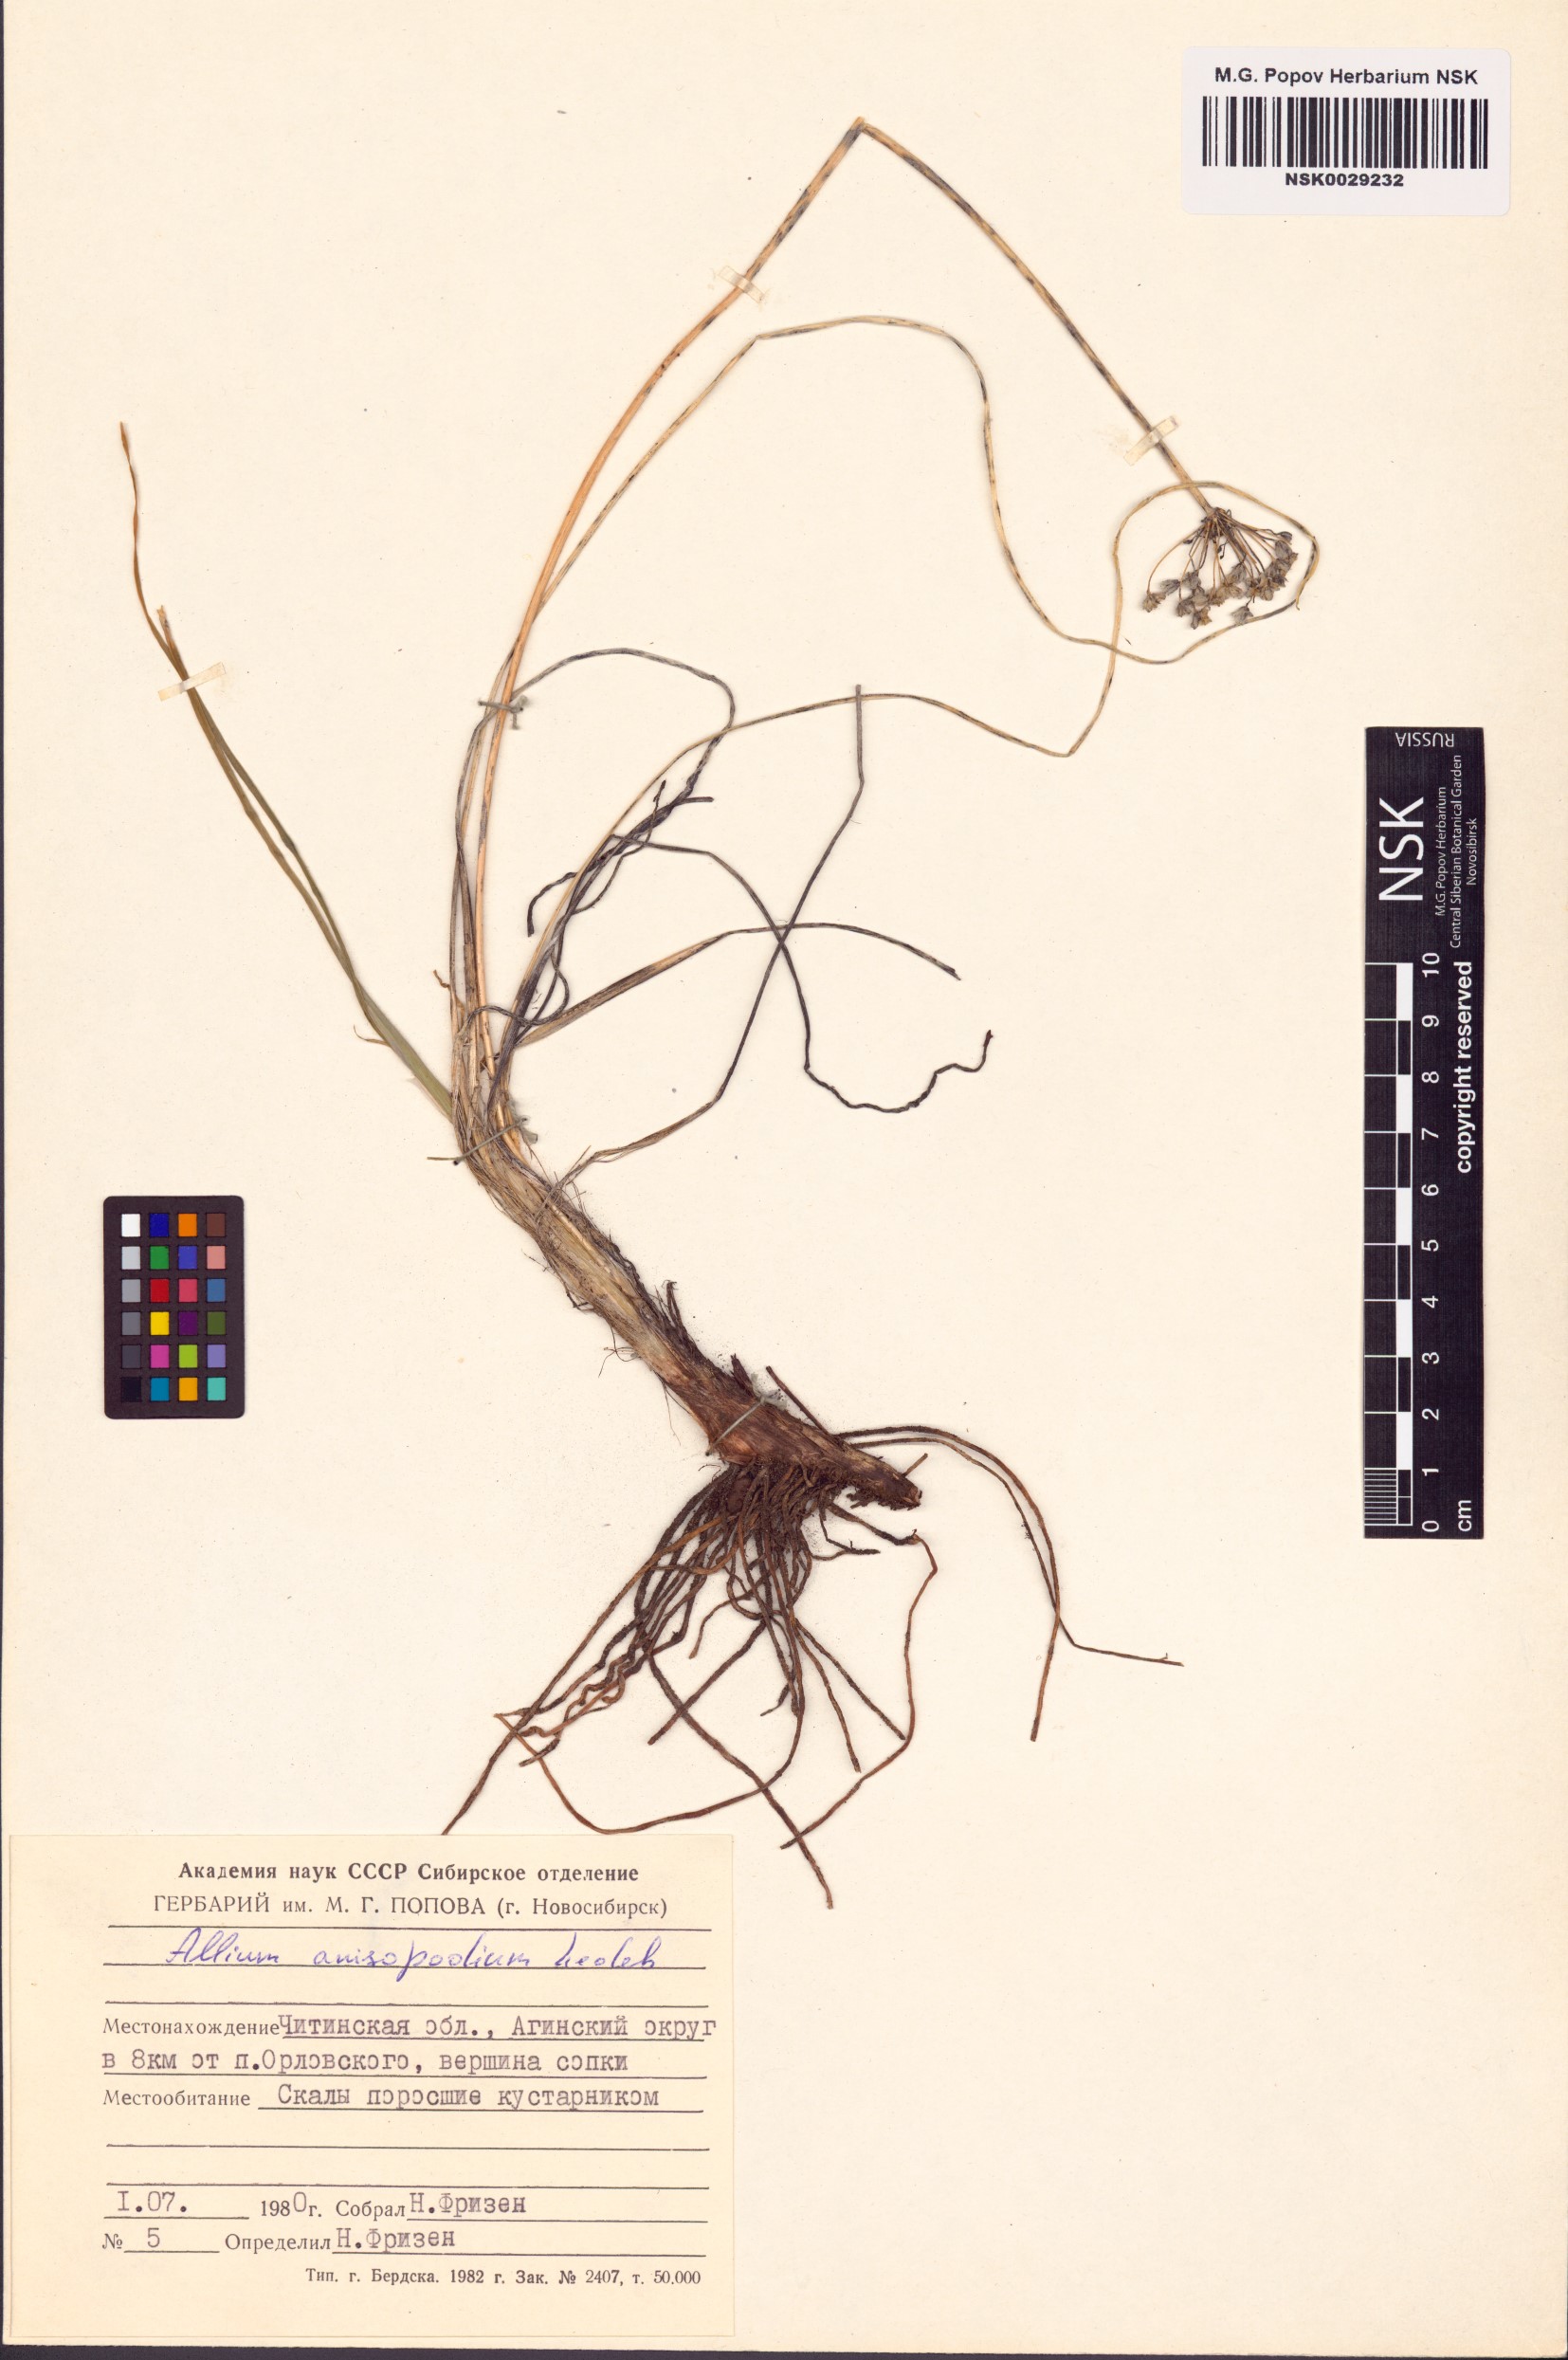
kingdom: Plantae
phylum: Tracheophyta
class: Liliopsida
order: Asparagales
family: Amaryllidaceae
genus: Allium
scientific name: Allium anisopodium
